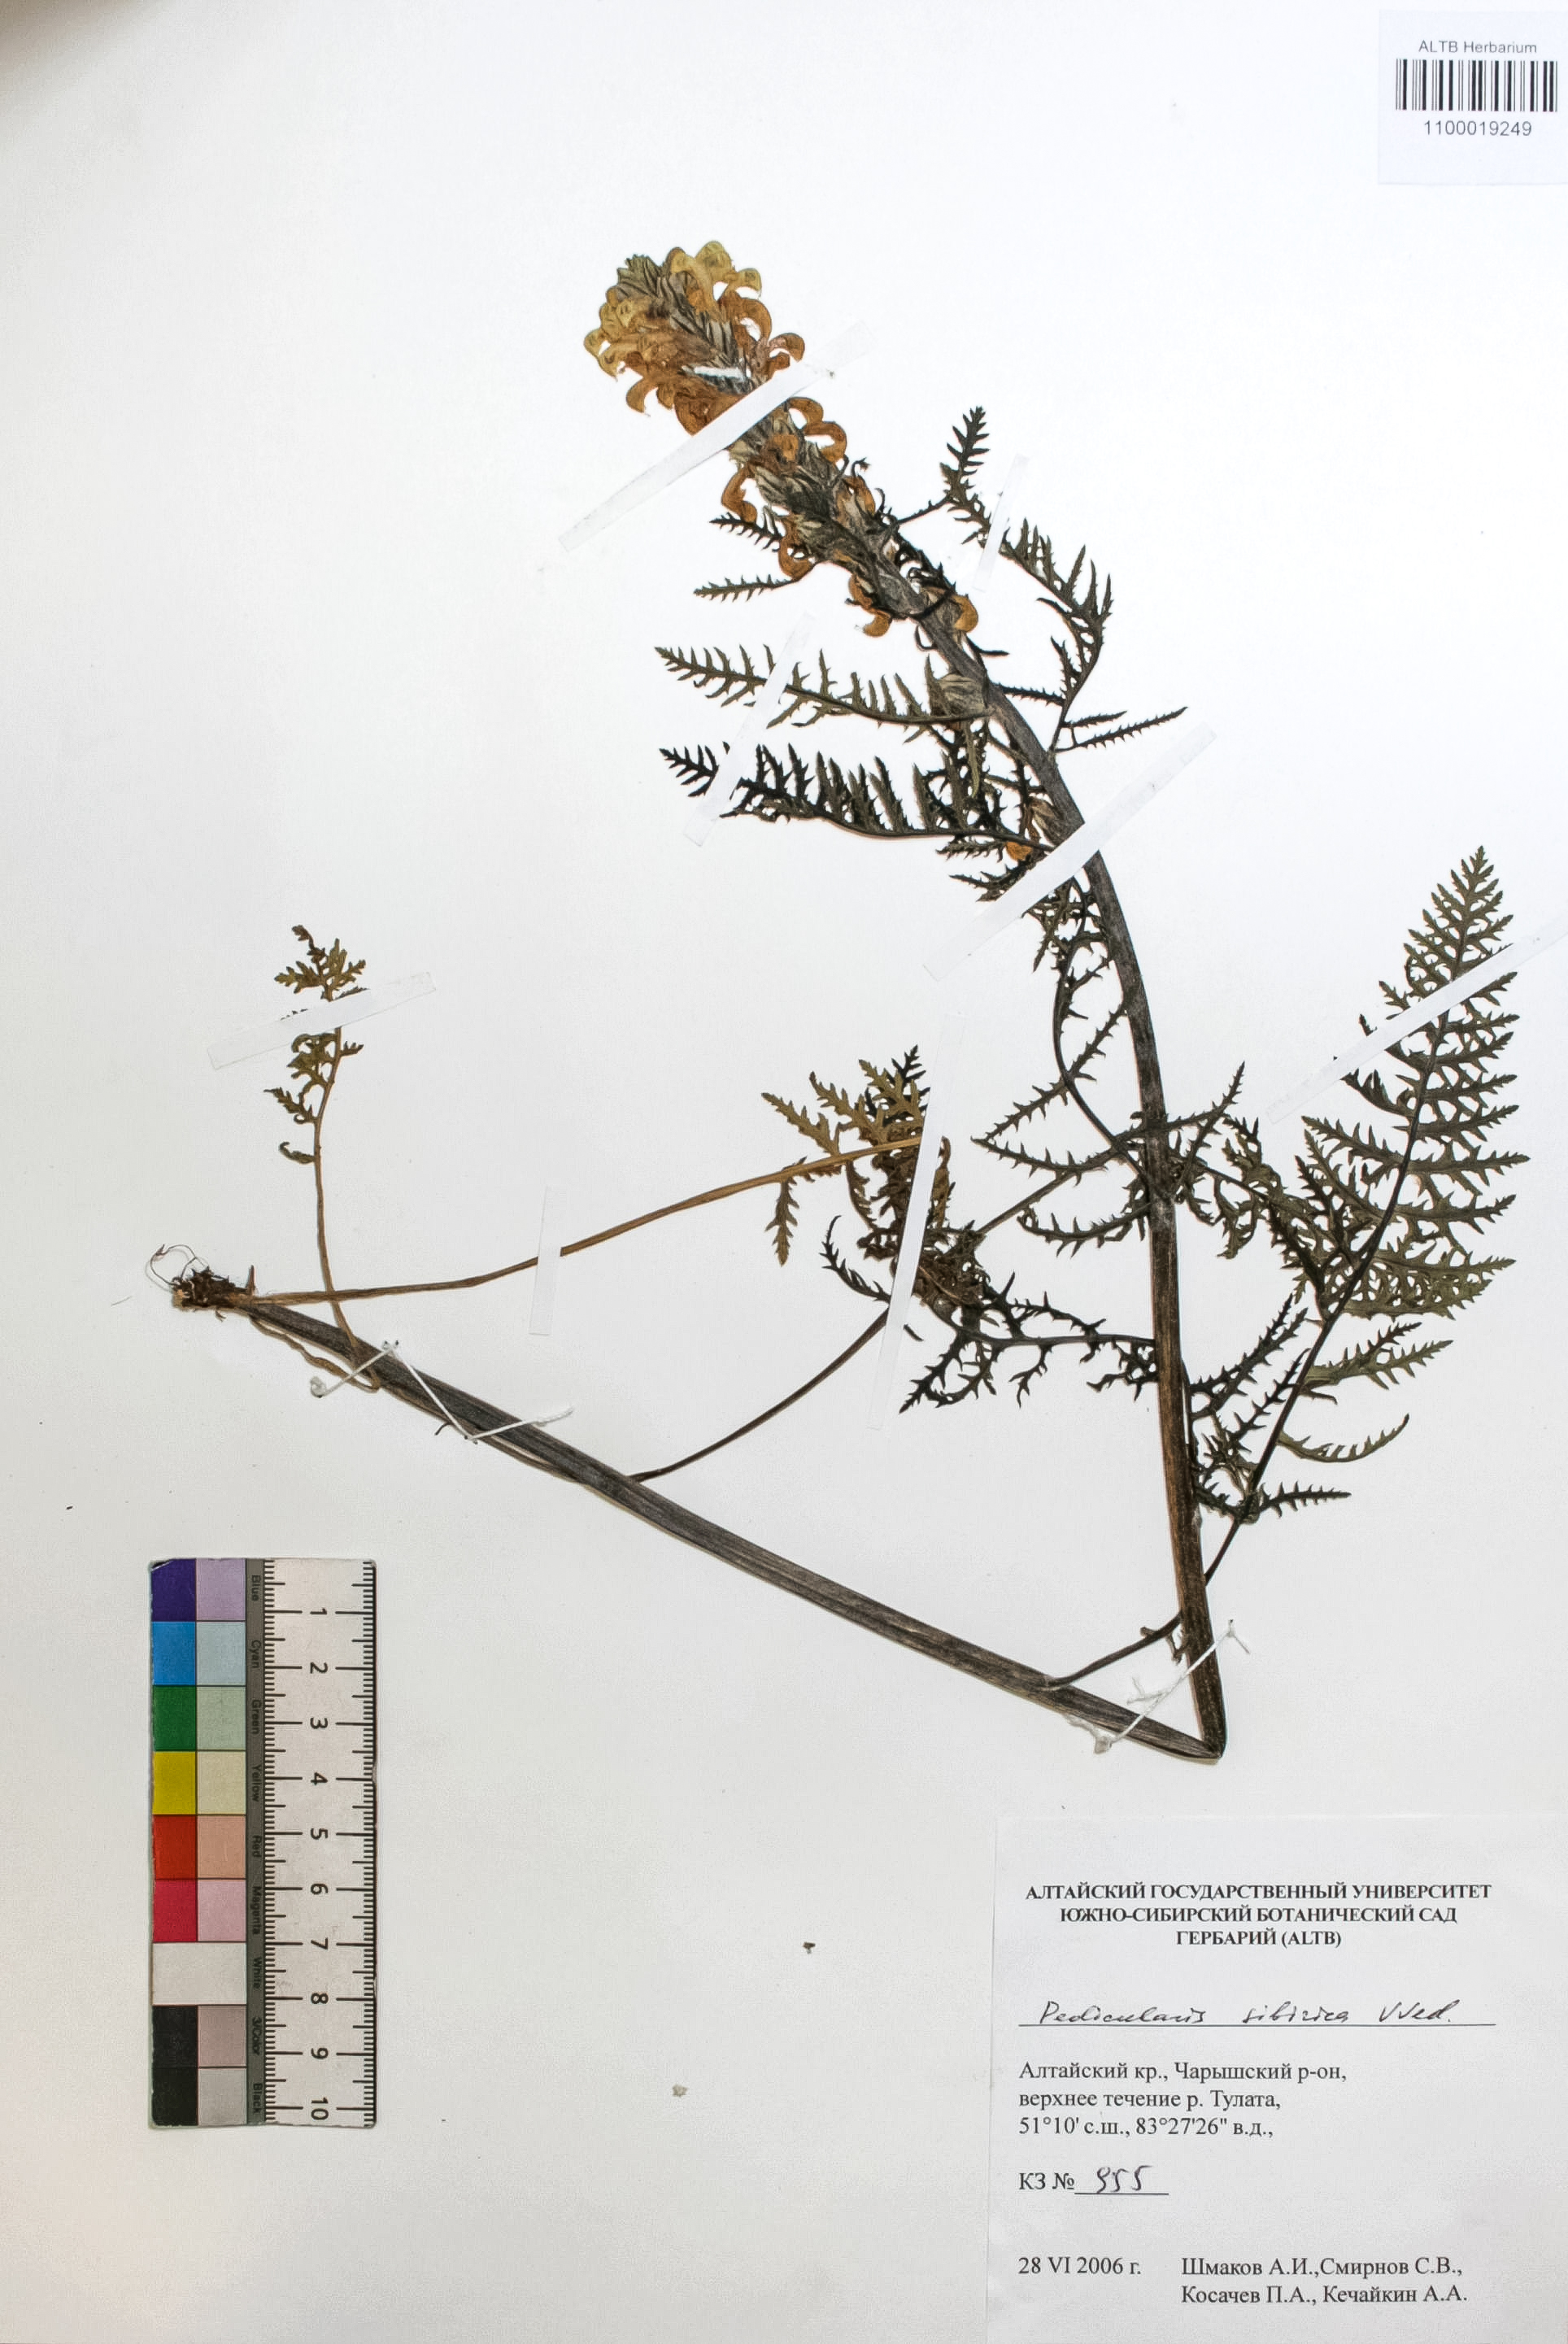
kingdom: Plantae
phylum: Tracheophyta
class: Magnoliopsida
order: Lamiales
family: Orobanchaceae
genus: Pedicularis
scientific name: Pedicularis sibirica
